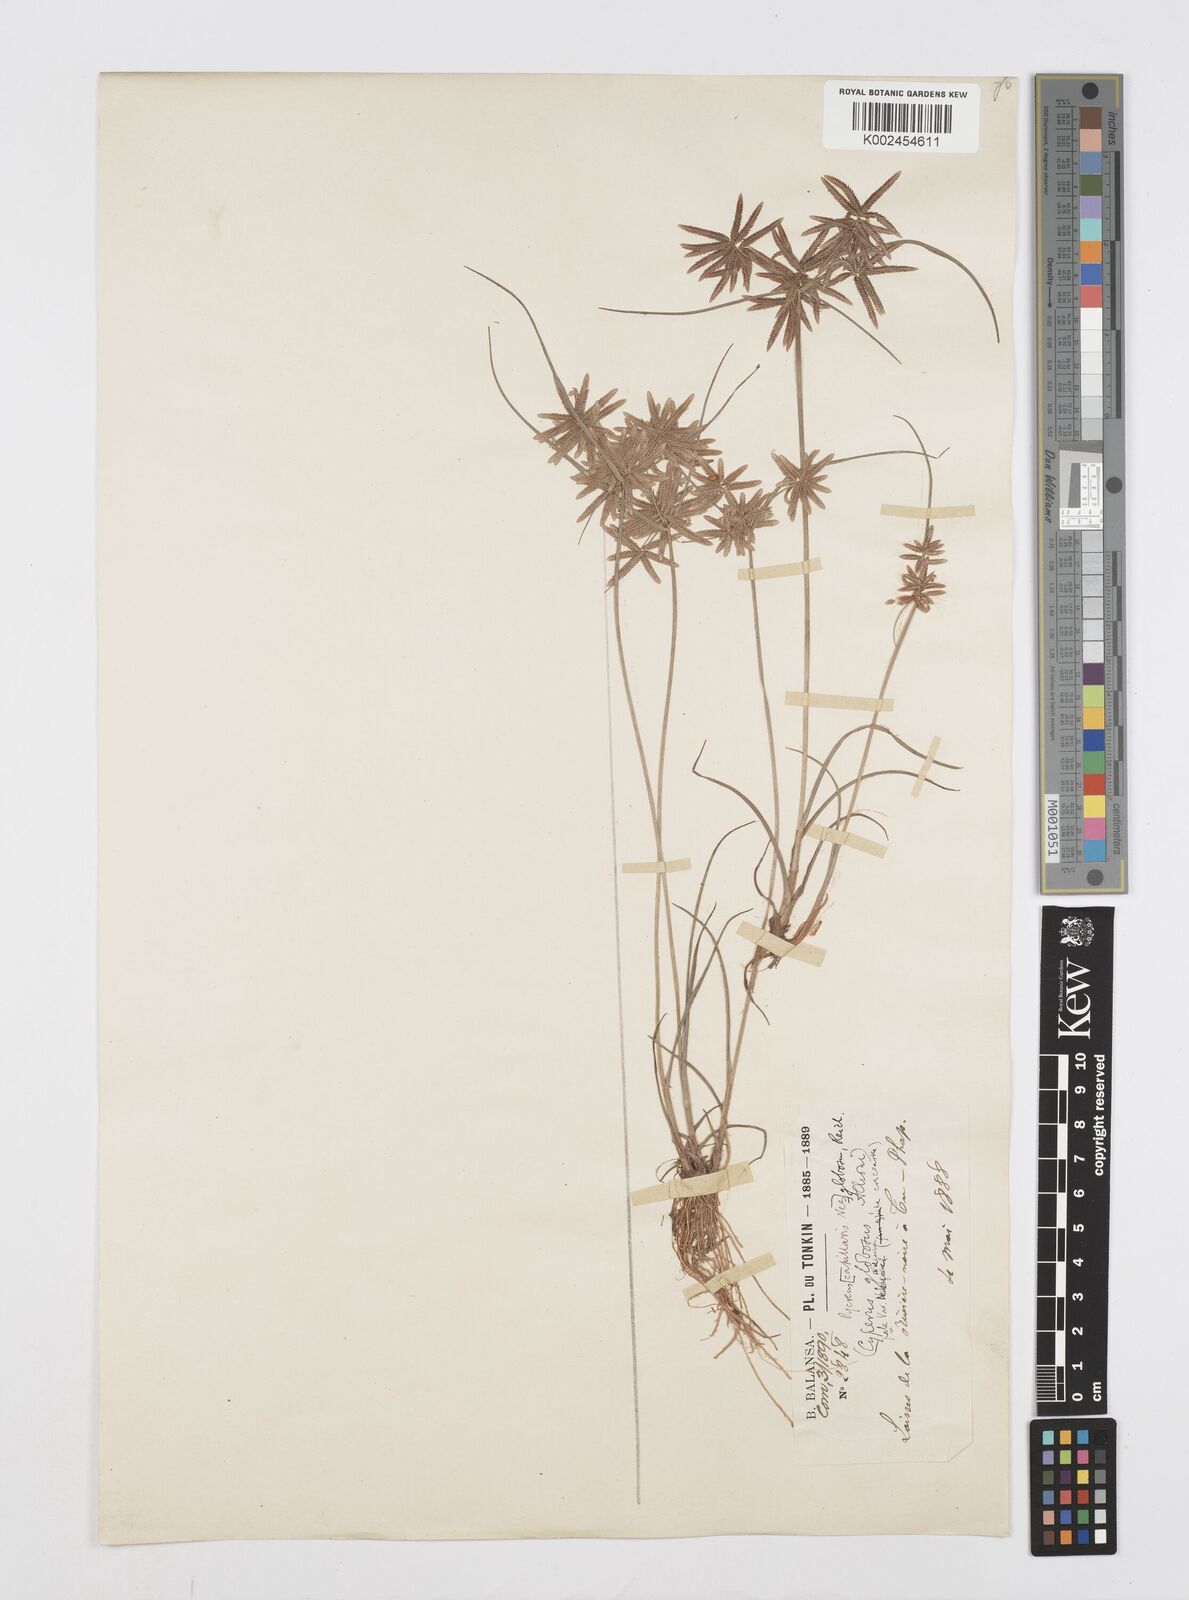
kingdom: Plantae
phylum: Tracheophyta
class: Liliopsida
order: Poales
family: Cyperaceae
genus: Cyperus
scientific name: Cyperus flavidus
